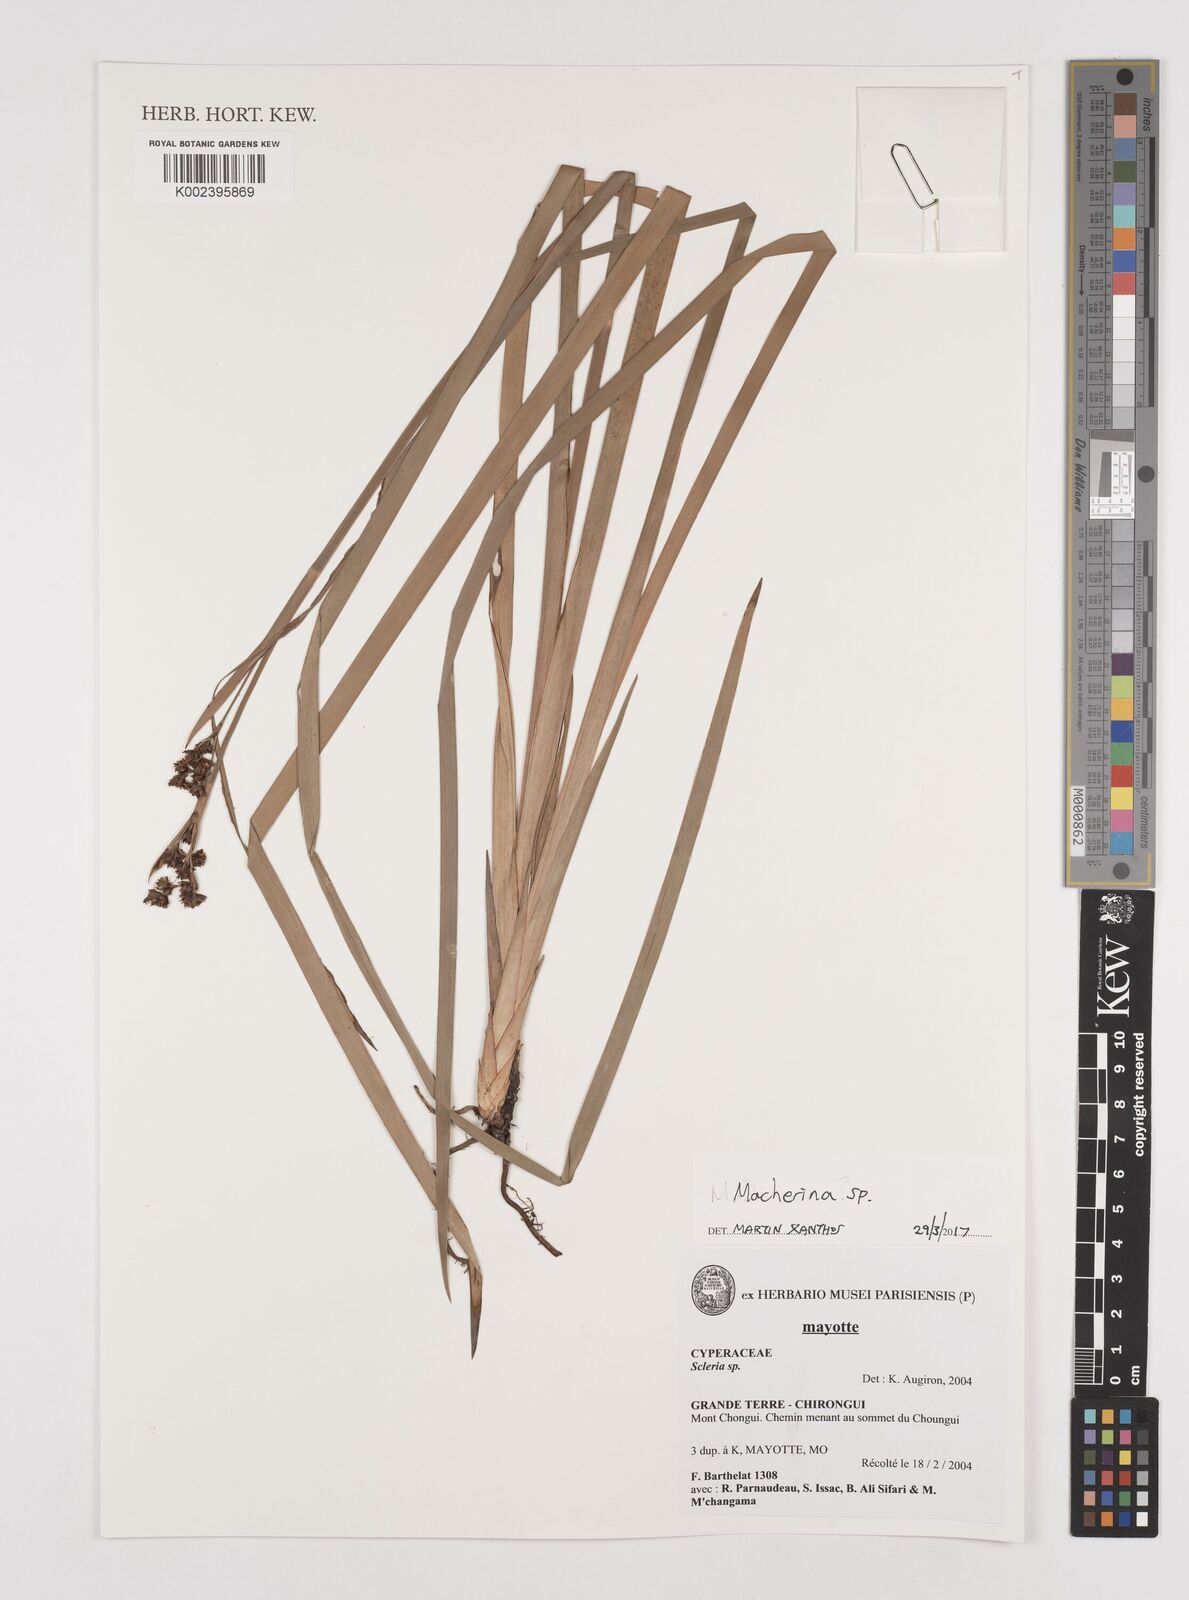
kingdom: Plantae
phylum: Tracheophyta
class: Liliopsida
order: Poales
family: Cyperaceae
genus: Machaerina
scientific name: Machaerina
